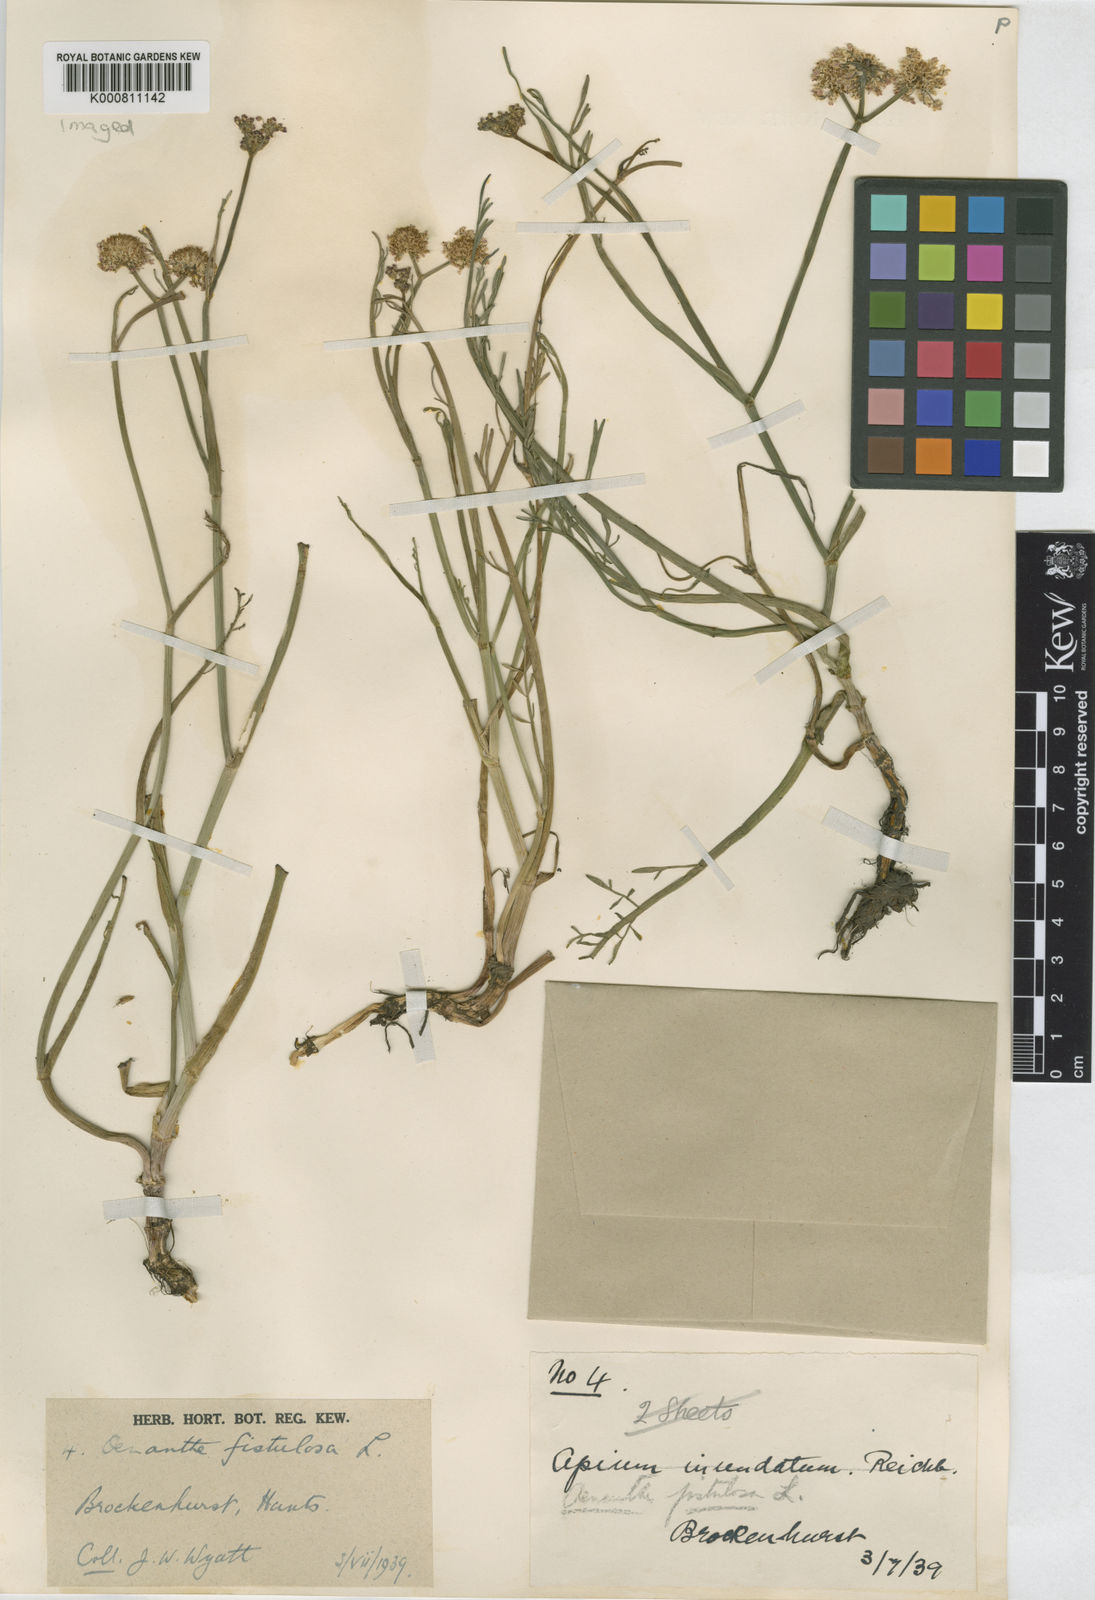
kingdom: Plantae
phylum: Tracheophyta
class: Magnoliopsida
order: Apiales
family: Apiaceae
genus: Oenanthe
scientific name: Oenanthe fistulosa
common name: Tubular water-dropwort
